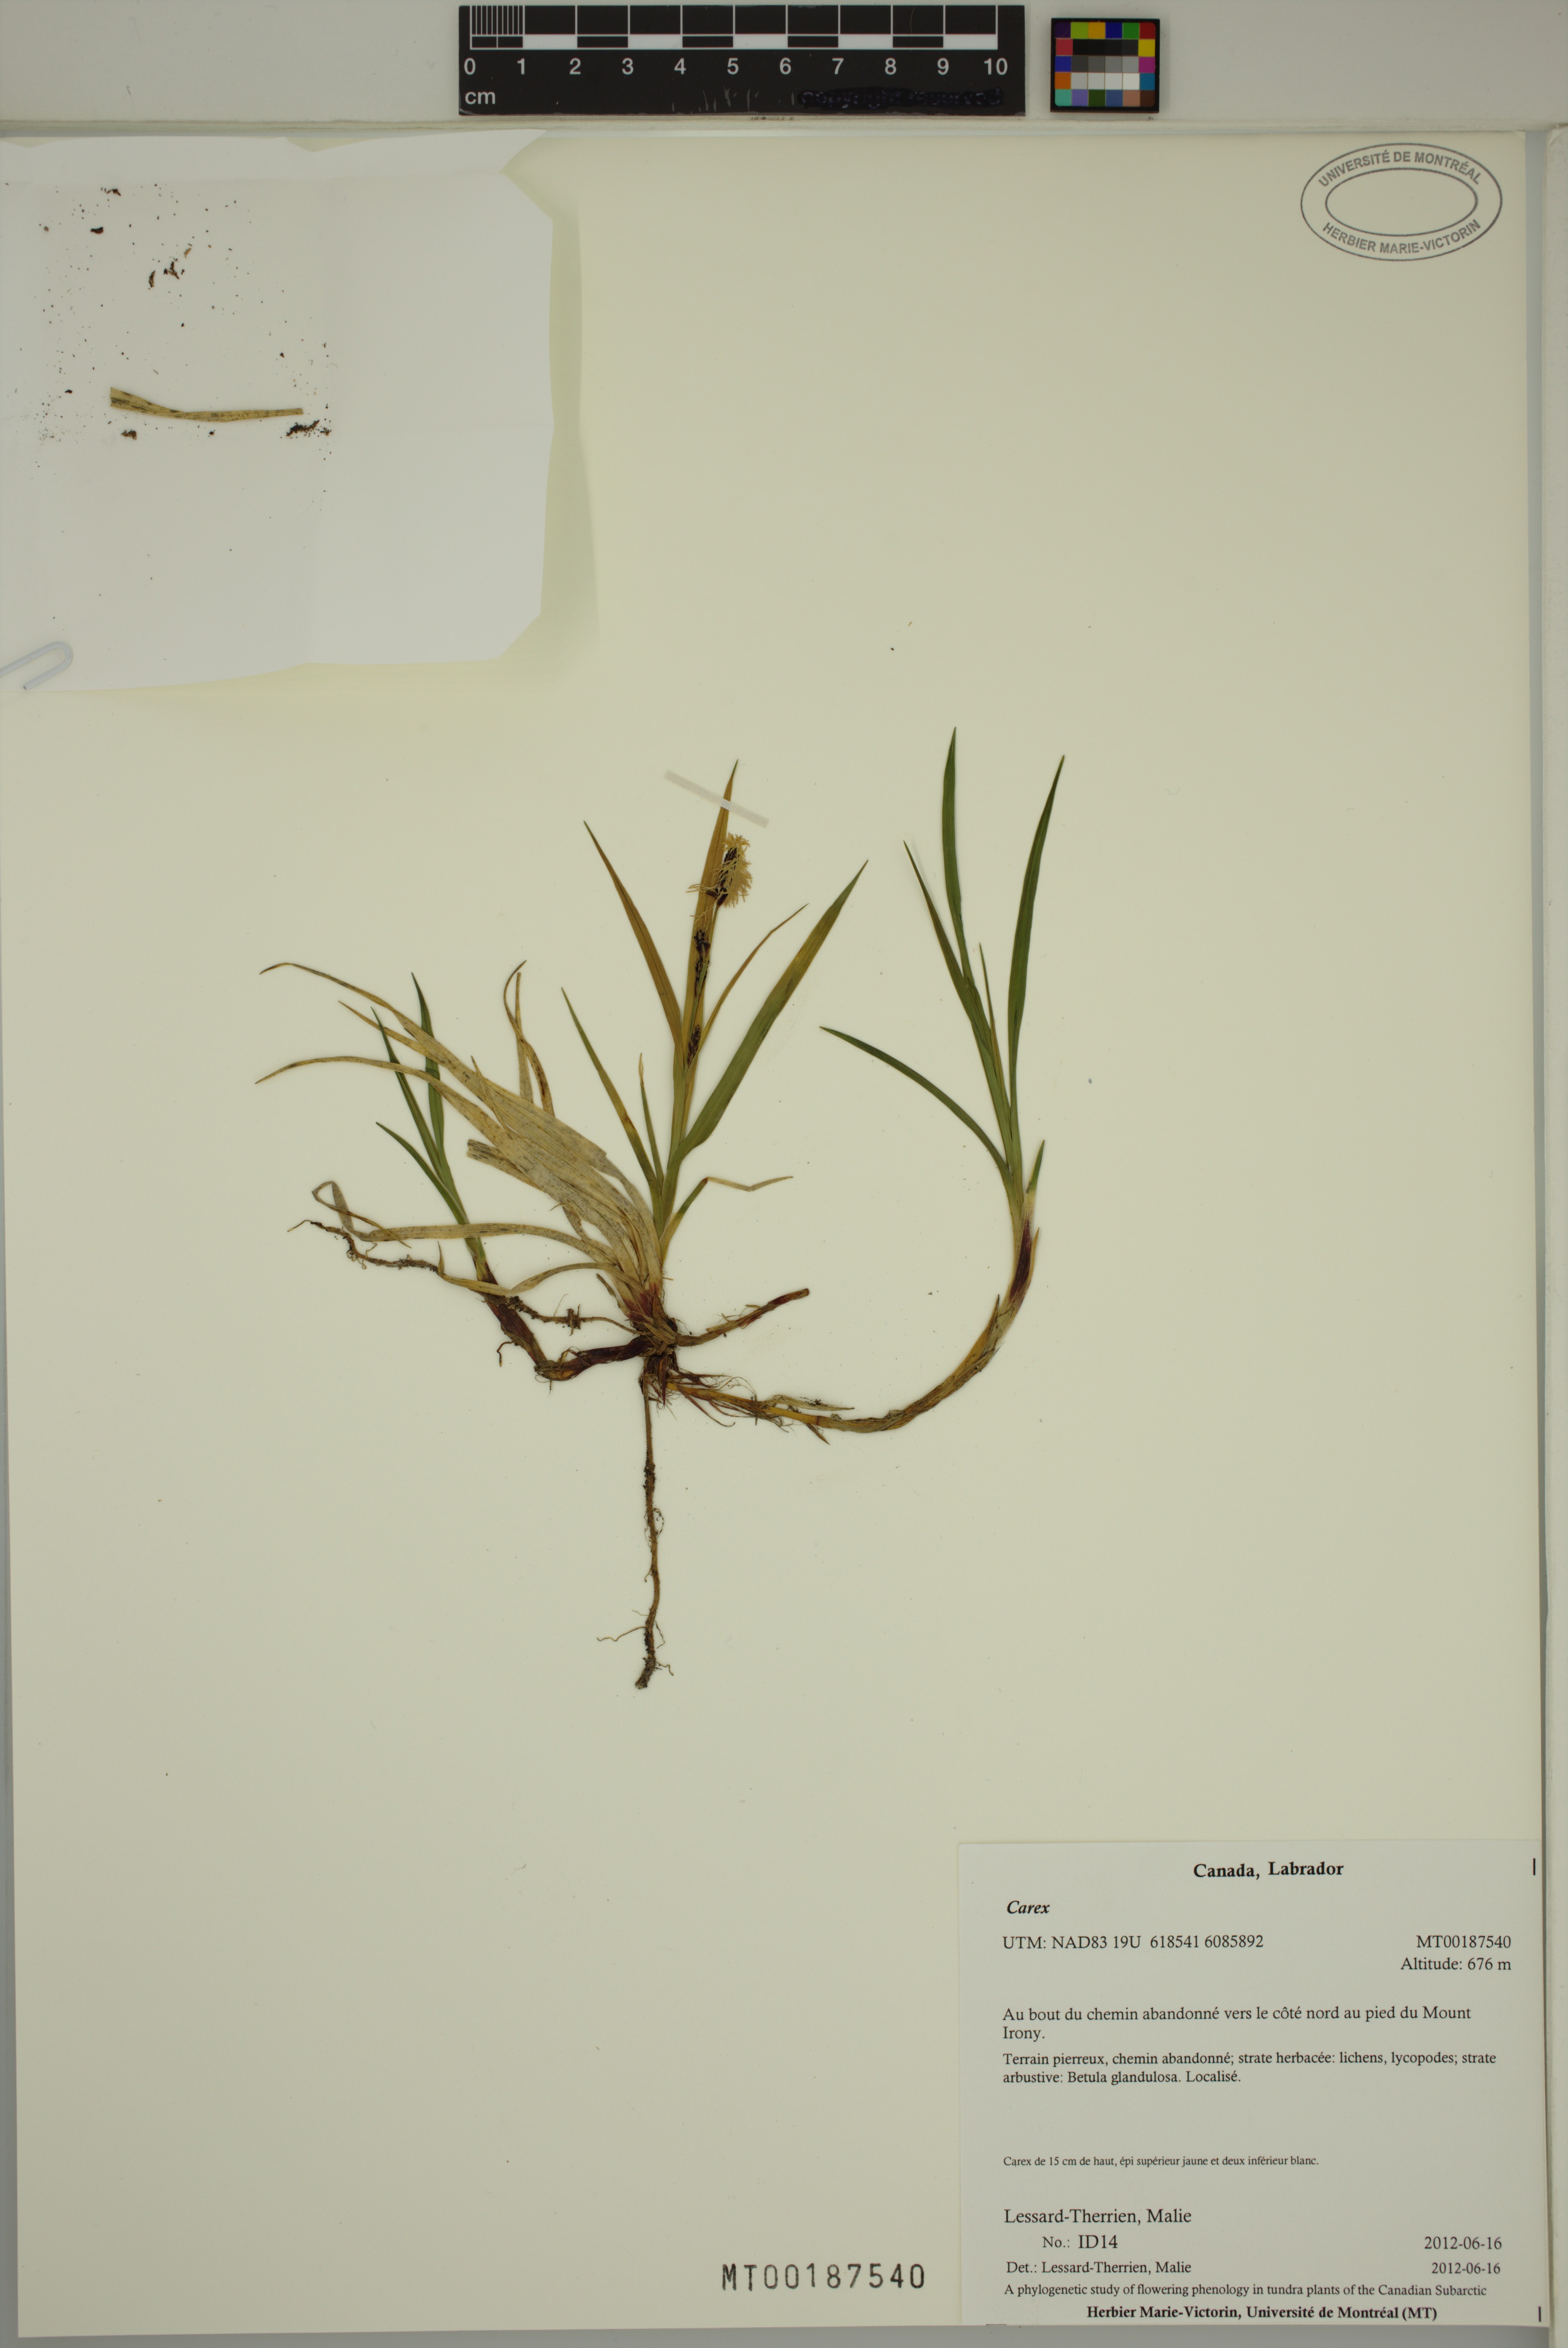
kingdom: Plantae
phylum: Tracheophyta
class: Liliopsida
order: Poales
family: Cyperaceae
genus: Carex
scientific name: Carex
